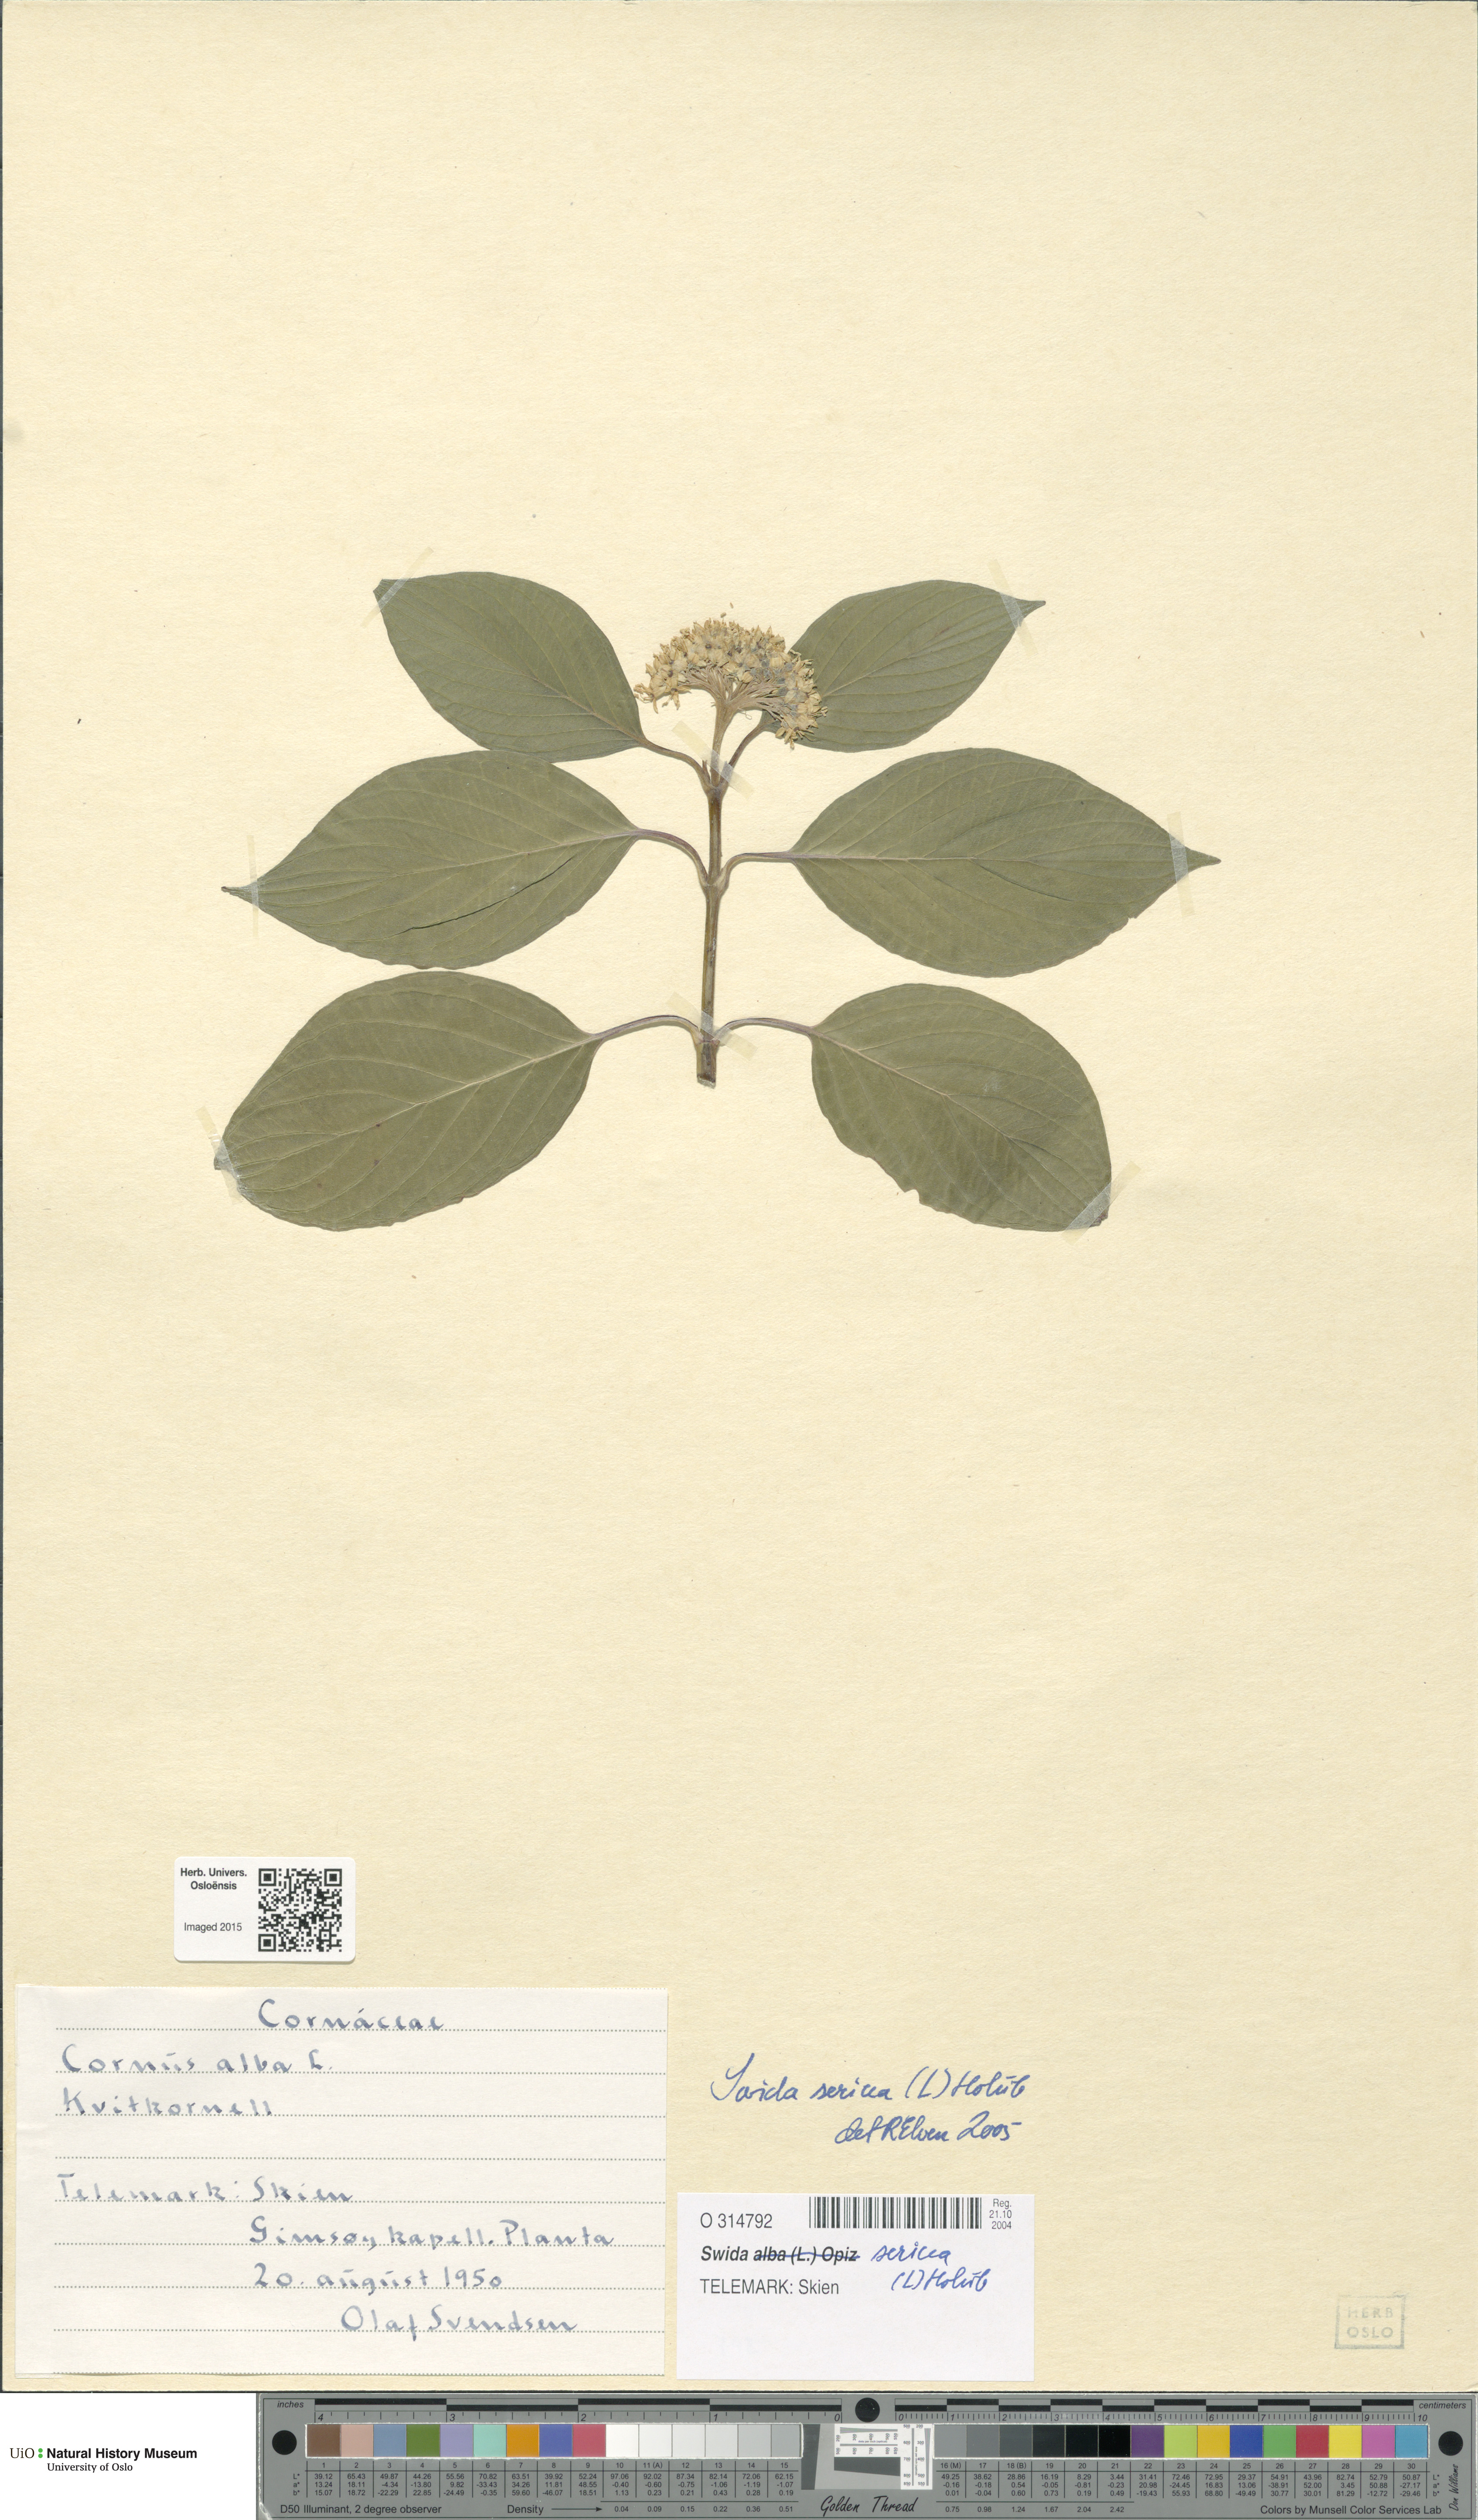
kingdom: Plantae
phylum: Tracheophyta
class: Magnoliopsida
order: Cornales
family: Cornaceae
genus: Cornus
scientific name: Cornus sericea
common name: Red-osier dogwood
